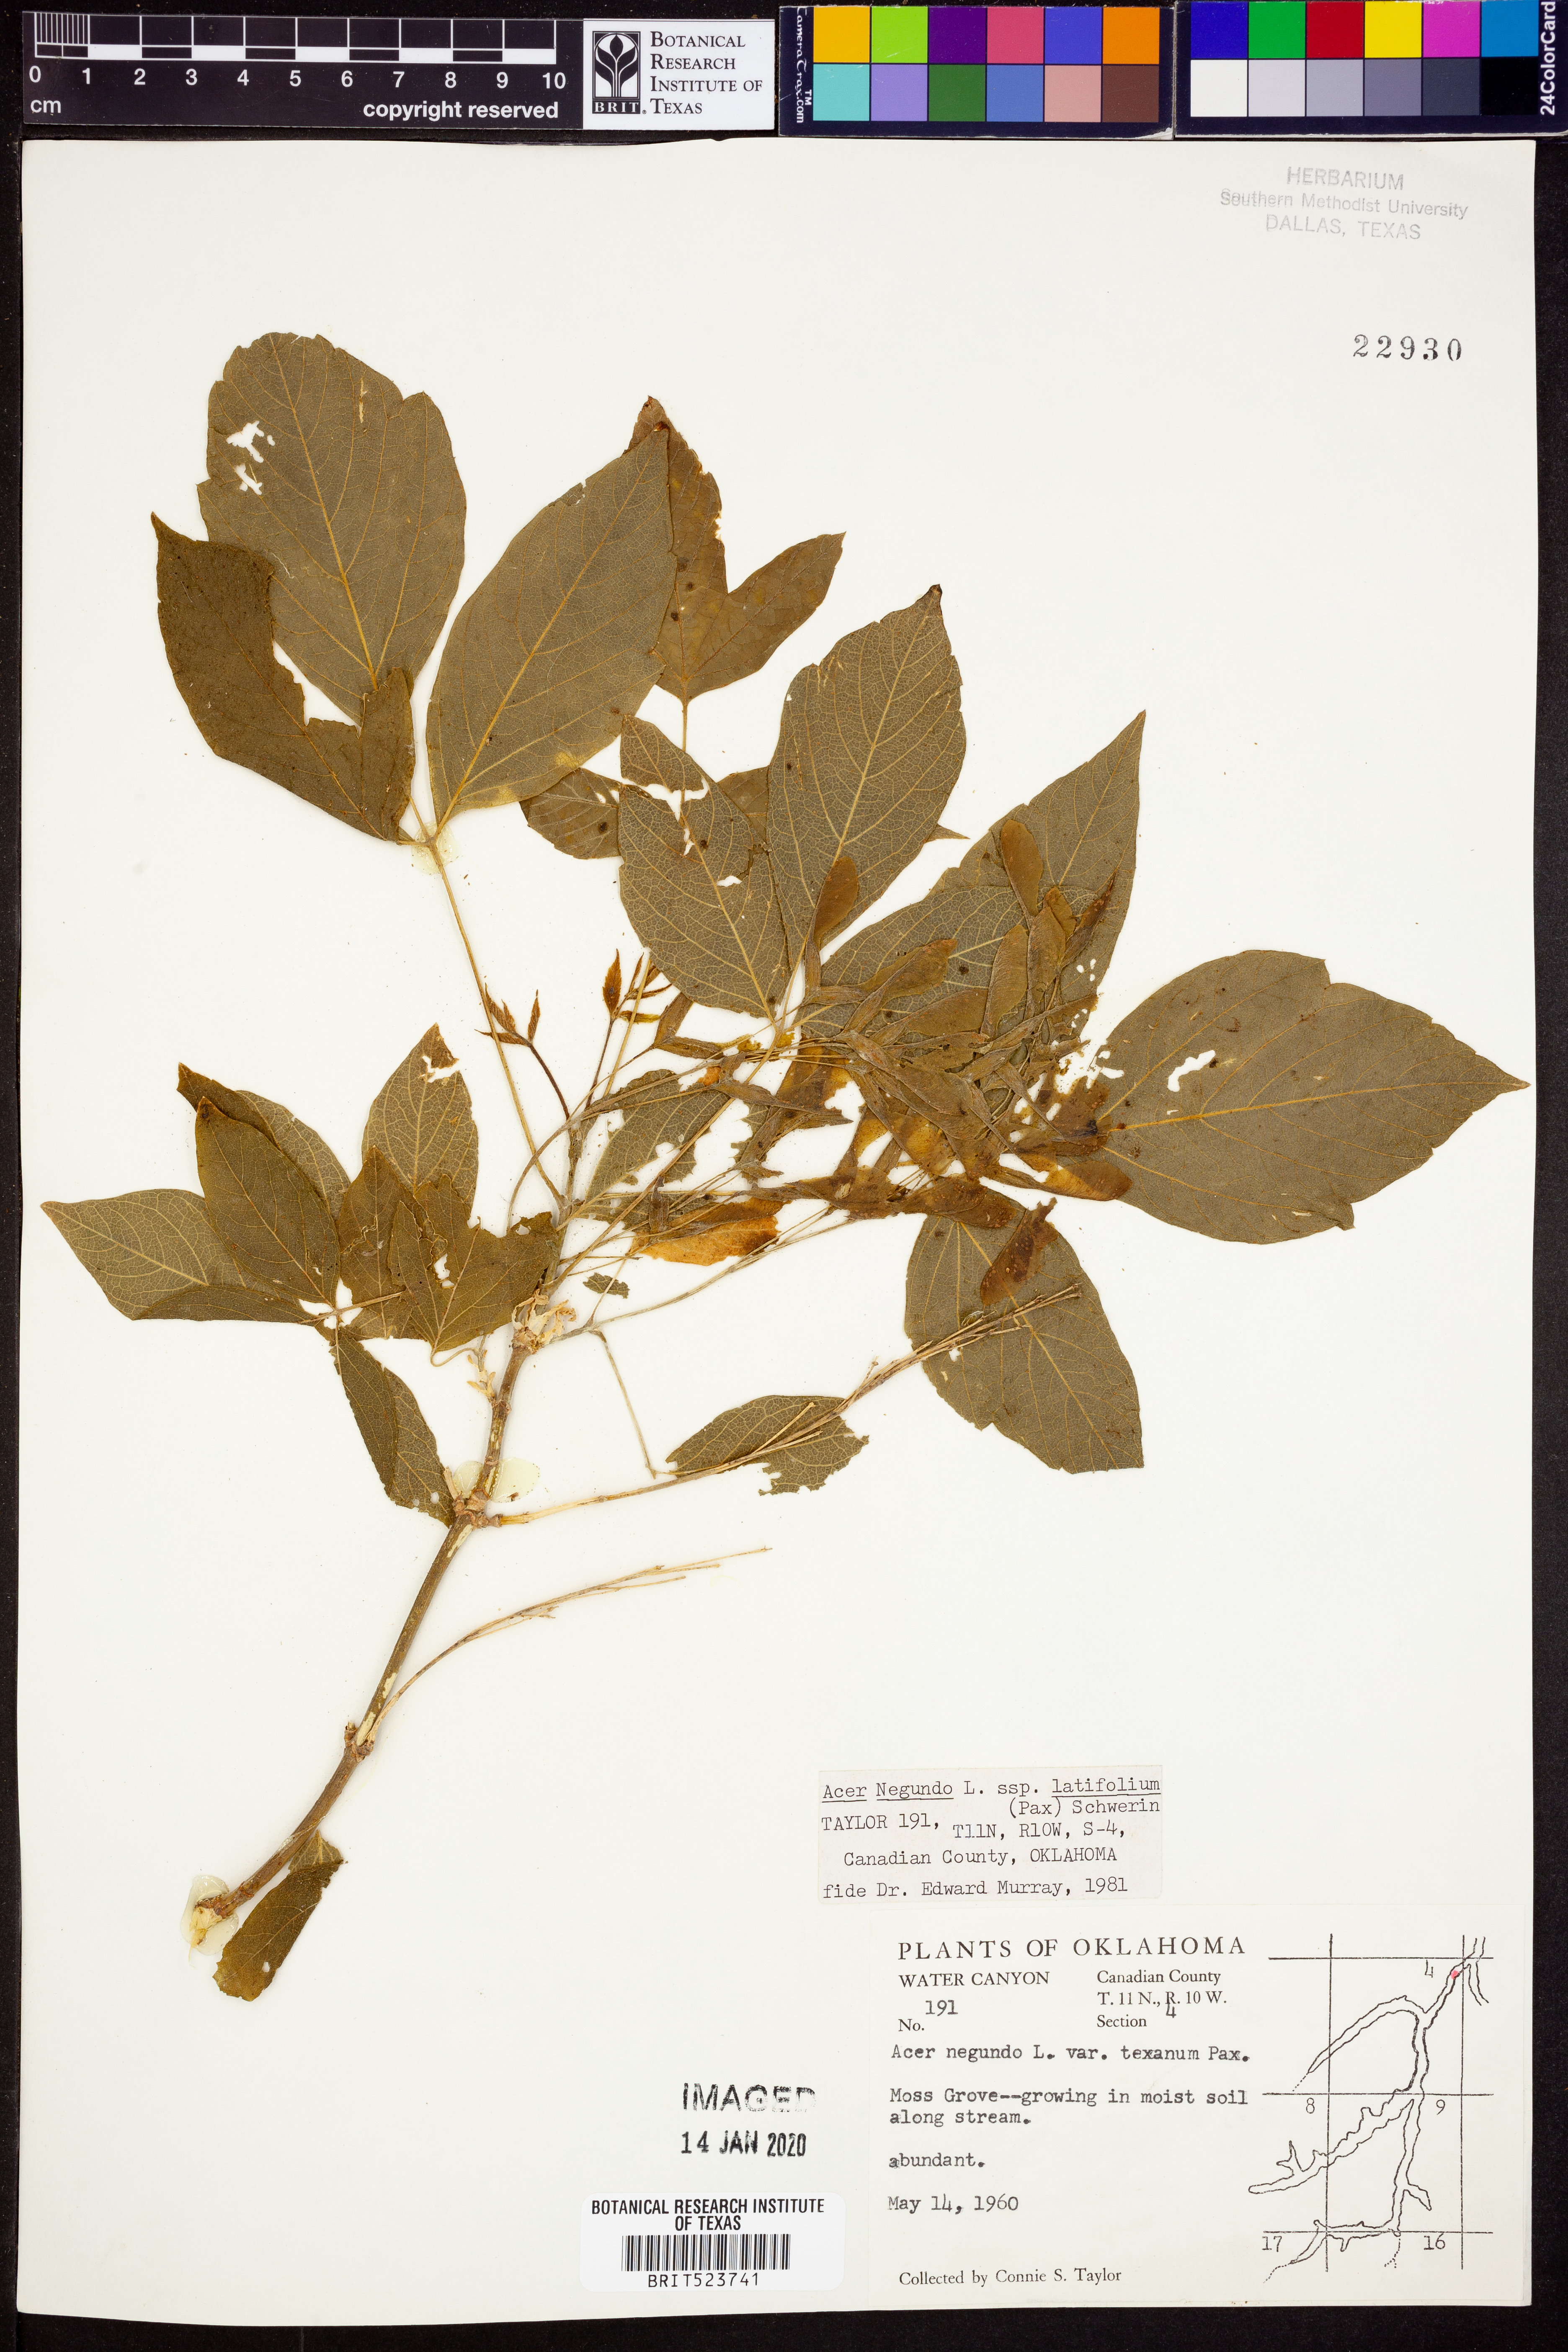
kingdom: Plantae
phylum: Tracheophyta
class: Magnoliopsida
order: Sapindales
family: Sapindaceae
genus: Acer
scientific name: Acer negundo
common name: Ashleaf maple
